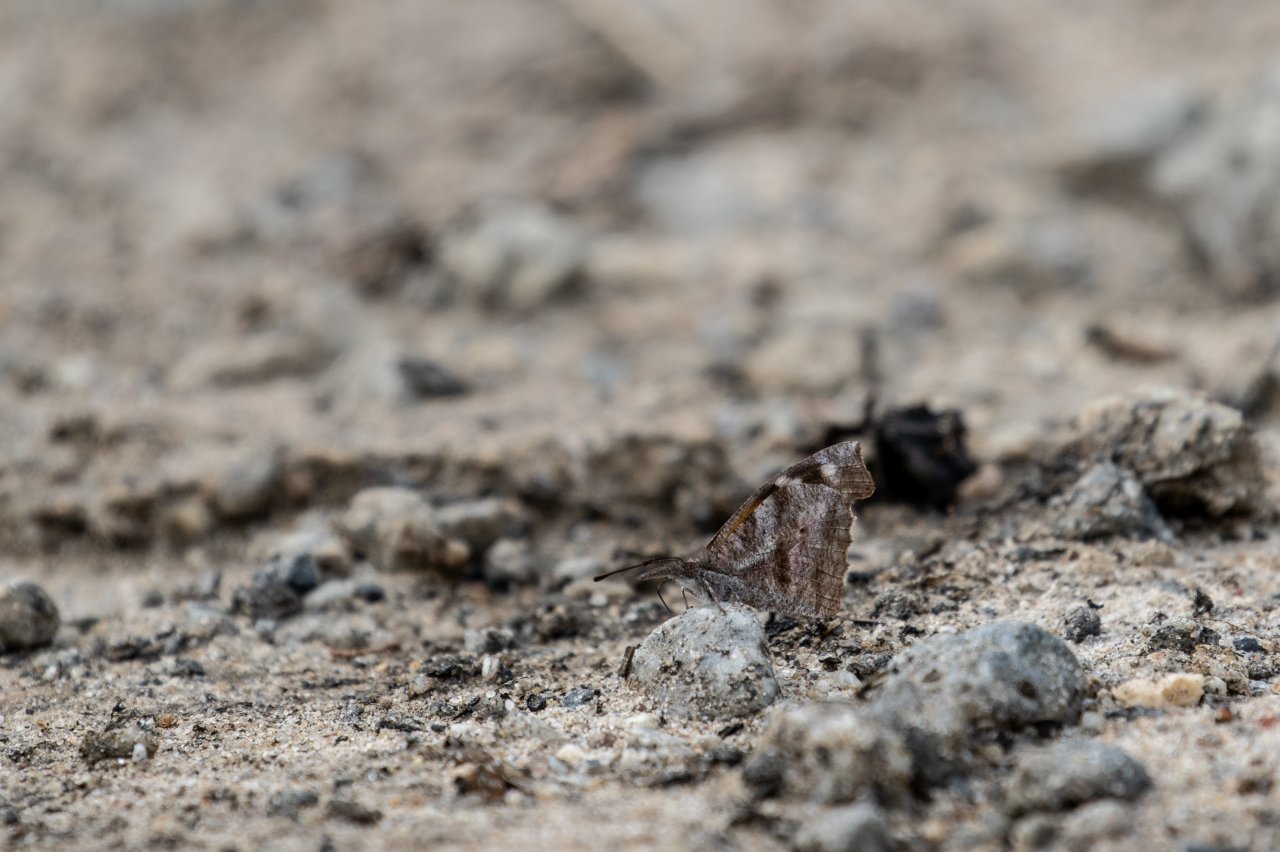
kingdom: Animalia
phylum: Arthropoda
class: Insecta
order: Lepidoptera
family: Nymphalidae
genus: Libytheana
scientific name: Libytheana carinenta
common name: American Snout
